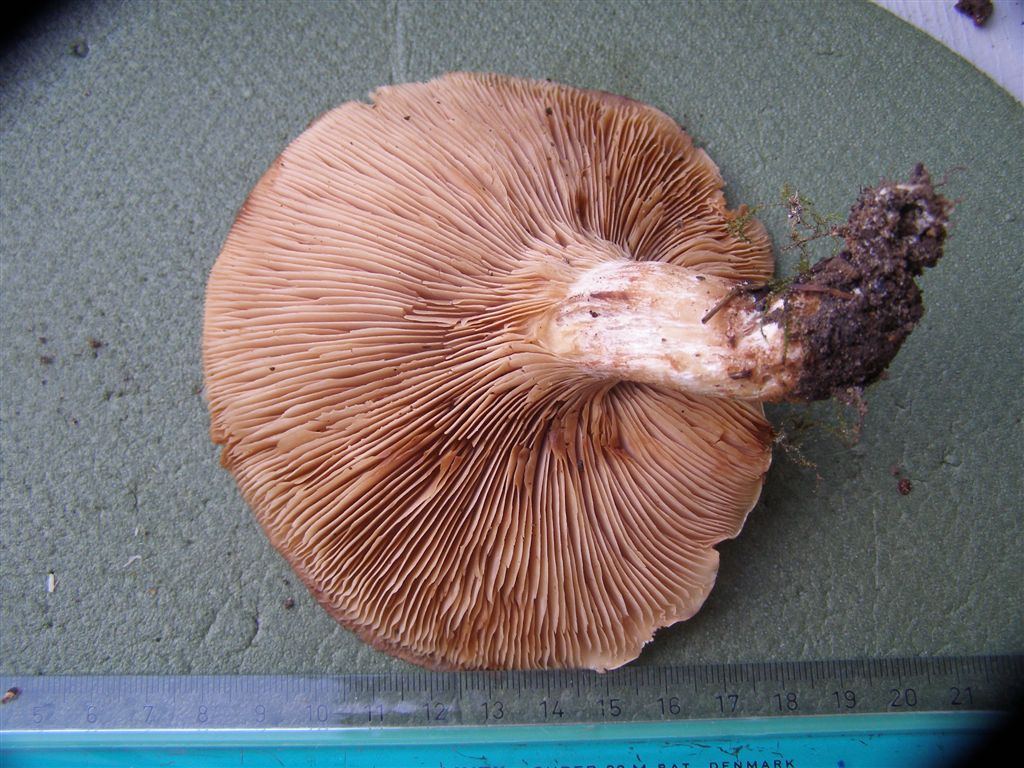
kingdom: Fungi
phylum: Basidiomycota
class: Agaricomycetes
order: Agaricales
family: Entolomataceae
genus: Clitopilus
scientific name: Clitopilus geminus
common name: kødfarvet troldhat
